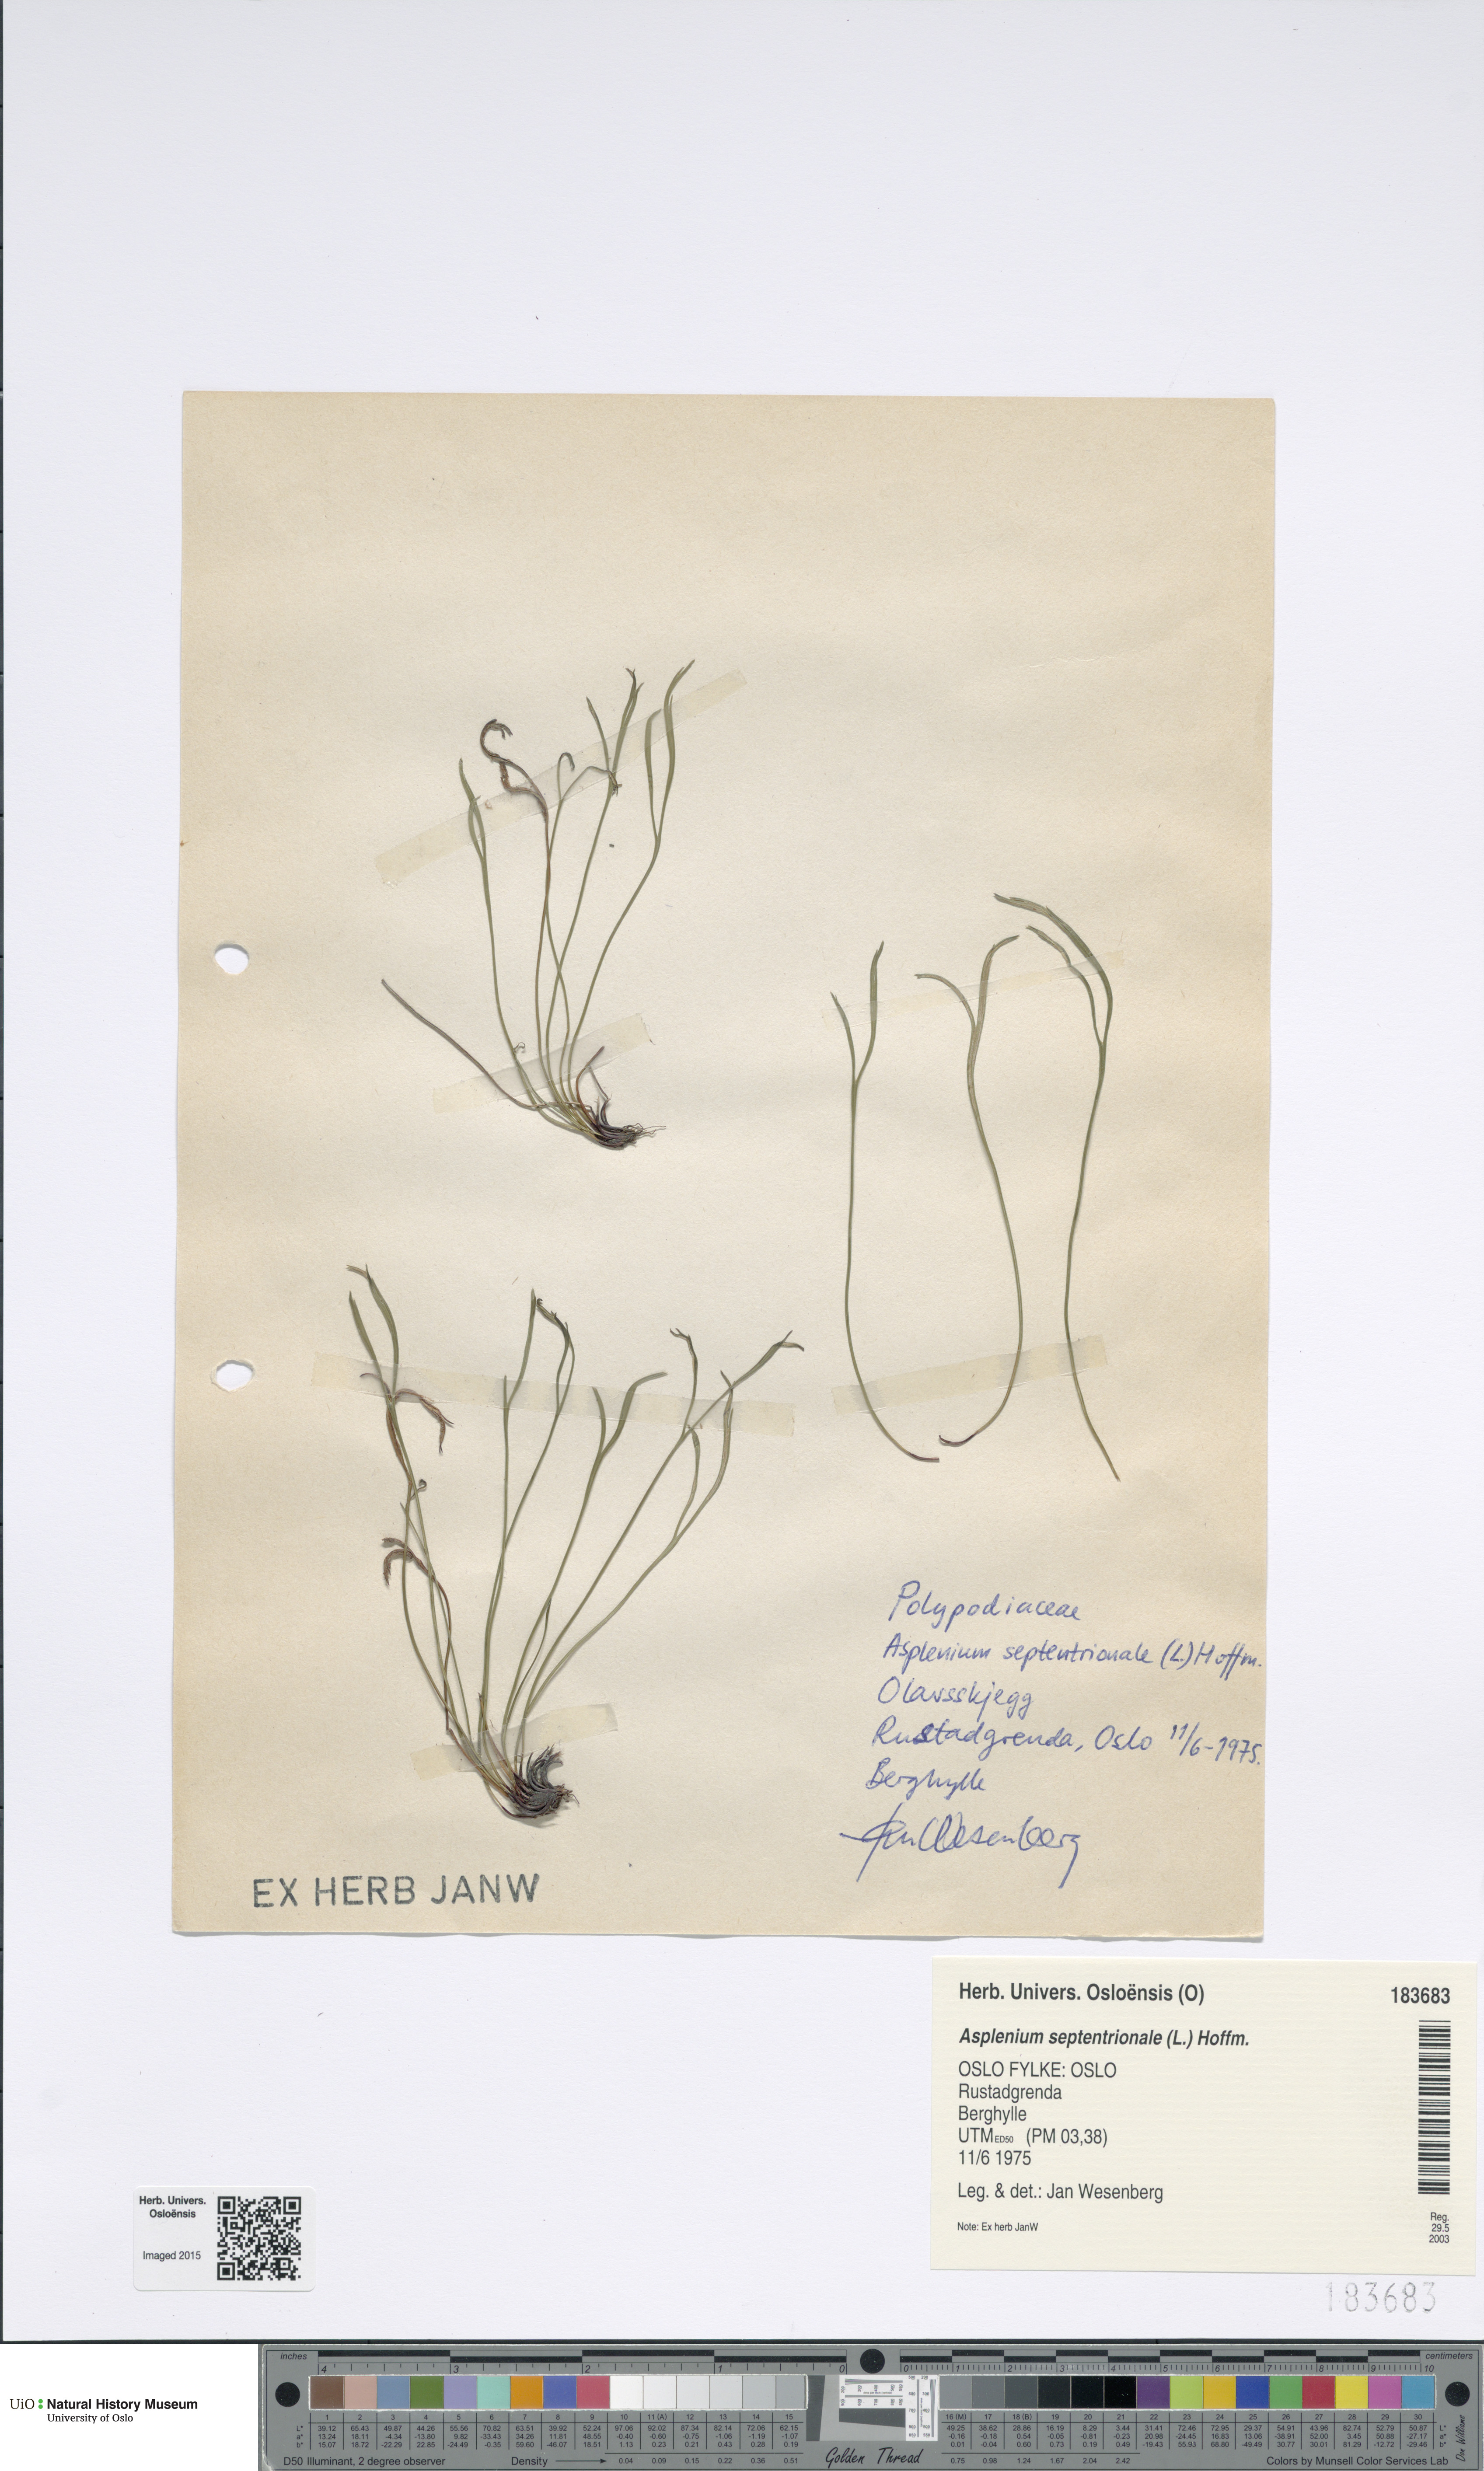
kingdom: Plantae
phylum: Tracheophyta
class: Polypodiopsida
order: Polypodiales
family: Aspleniaceae
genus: Asplenium
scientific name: Asplenium septentrionale
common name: Forked spleenwort
